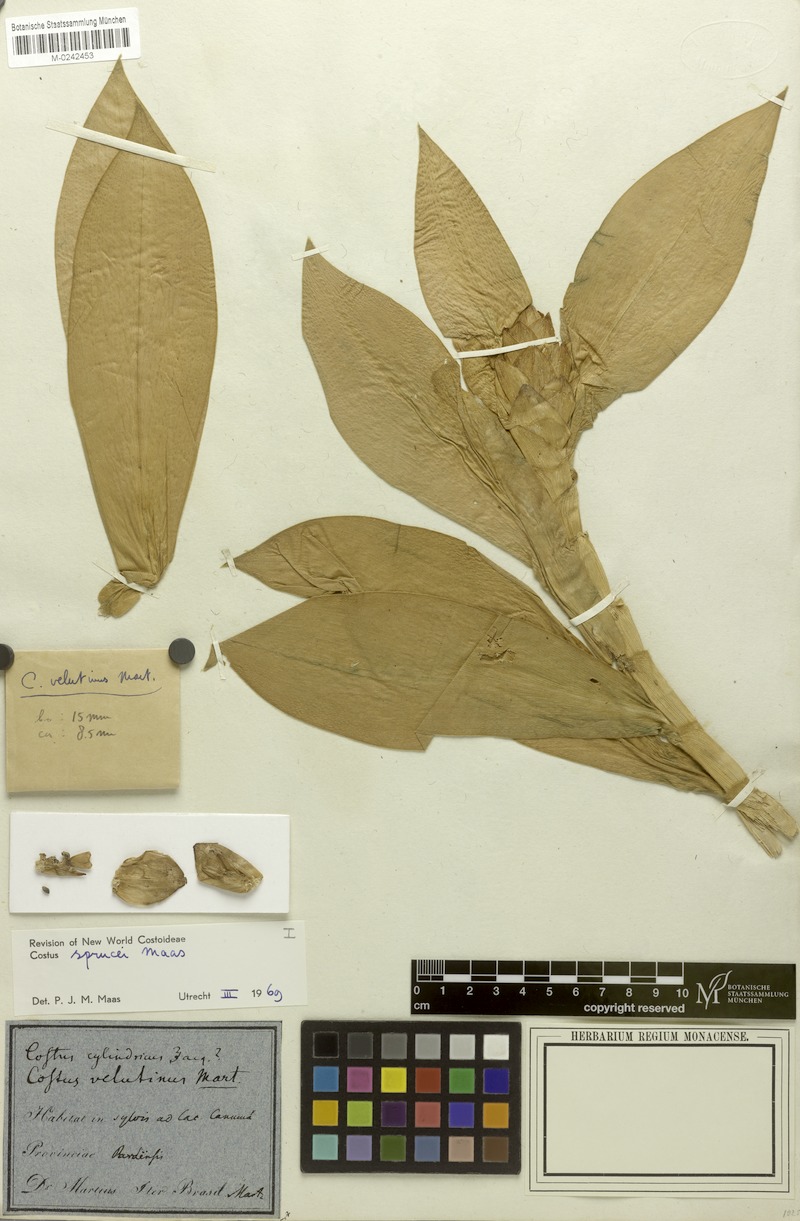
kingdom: Plantae
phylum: Tracheophyta
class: Liliopsida
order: Zingiberales
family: Costaceae
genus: Costus
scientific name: Costus sprucei
